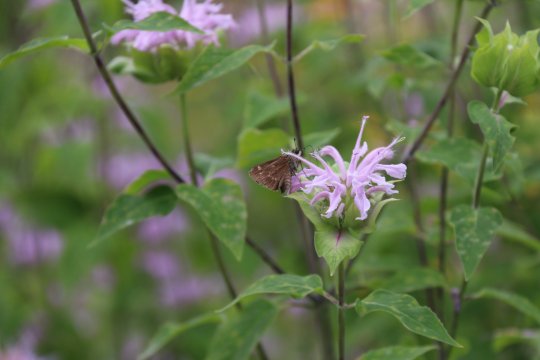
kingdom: Animalia
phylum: Arthropoda
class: Insecta
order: Lepidoptera
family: Hesperiidae
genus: Vernia
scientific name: Vernia verna
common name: Little Glassywing
